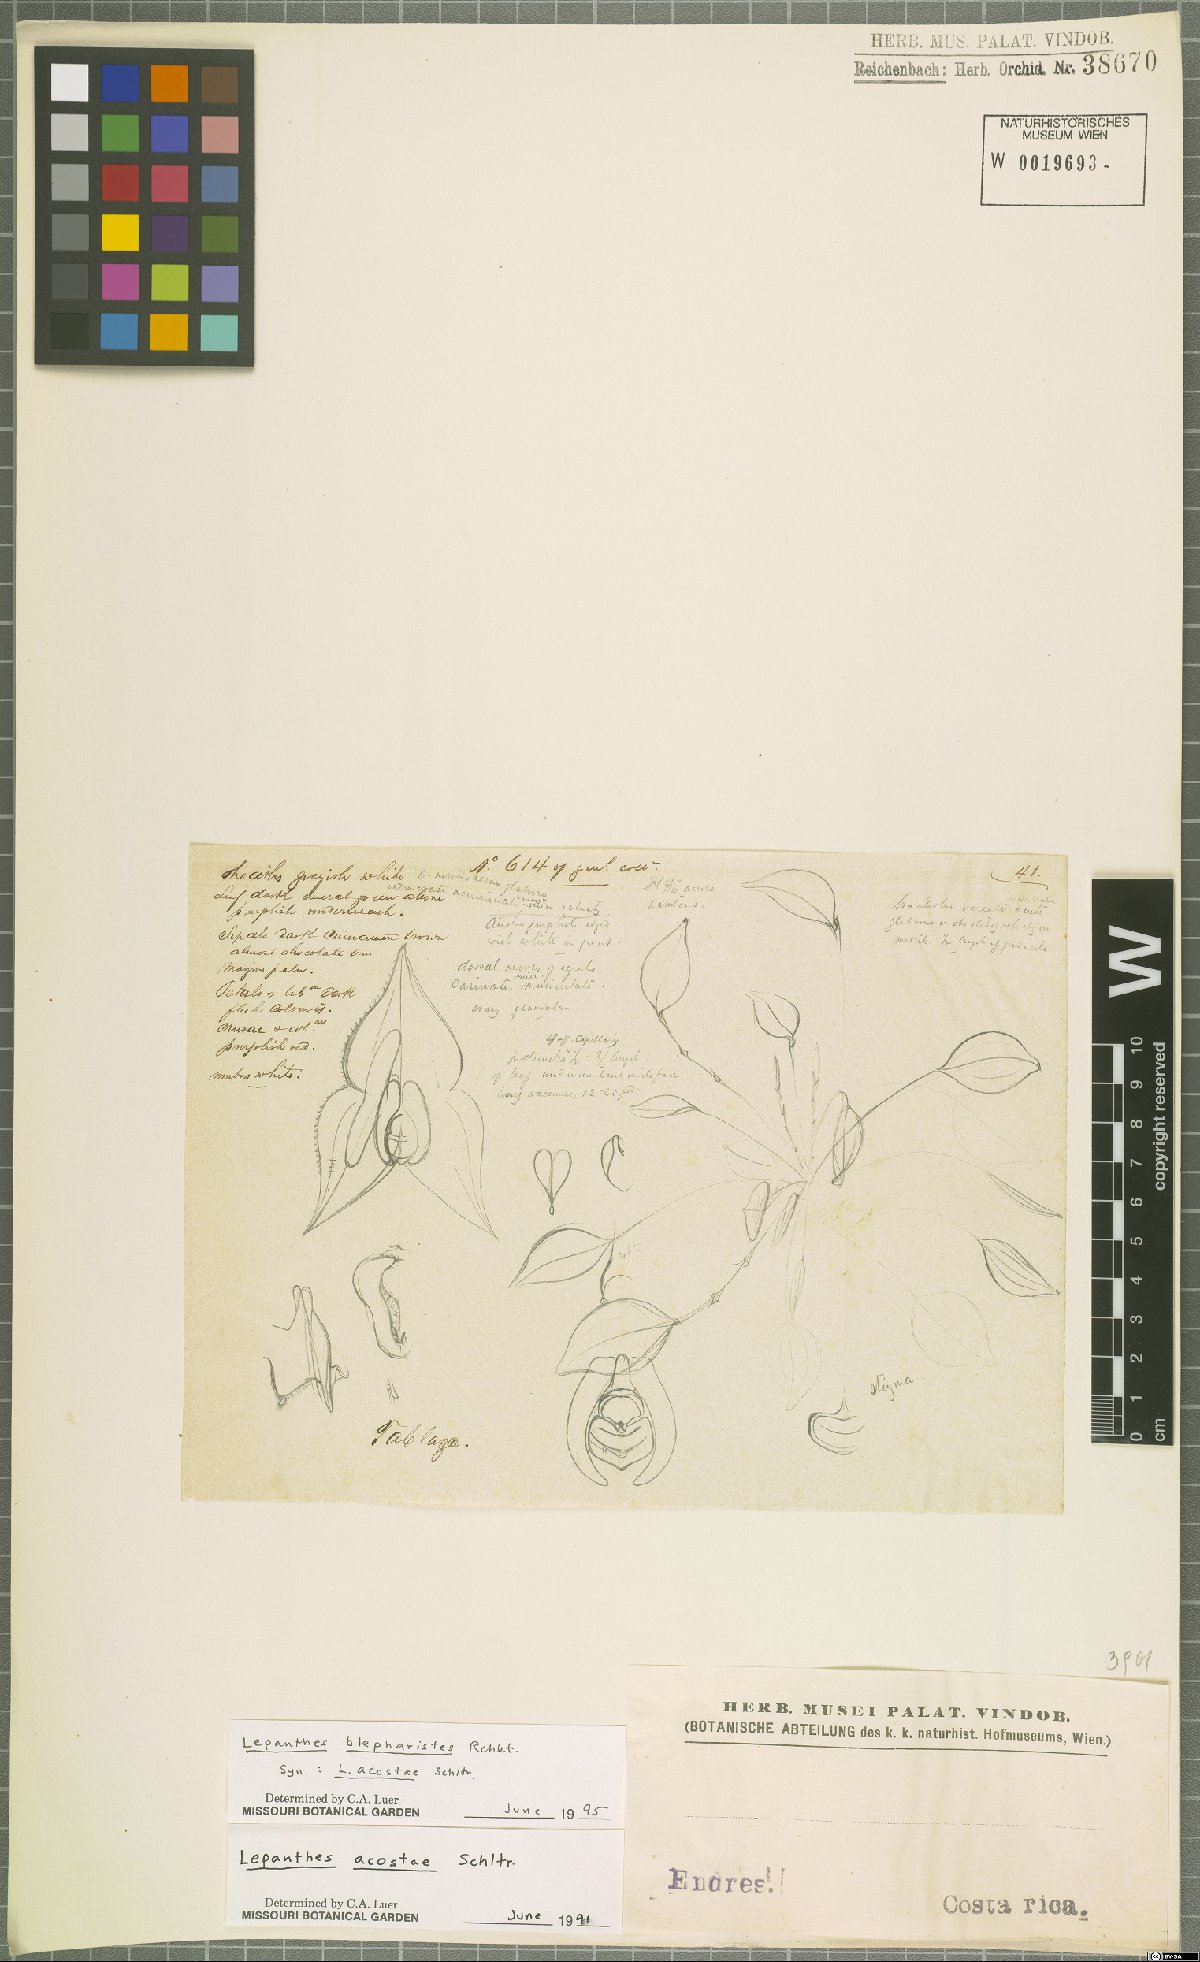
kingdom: Plantae
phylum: Tracheophyta
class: Liliopsida
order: Asparagales
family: Orchidaceae
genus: Lepanthes
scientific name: Lepanthes blepharistes
